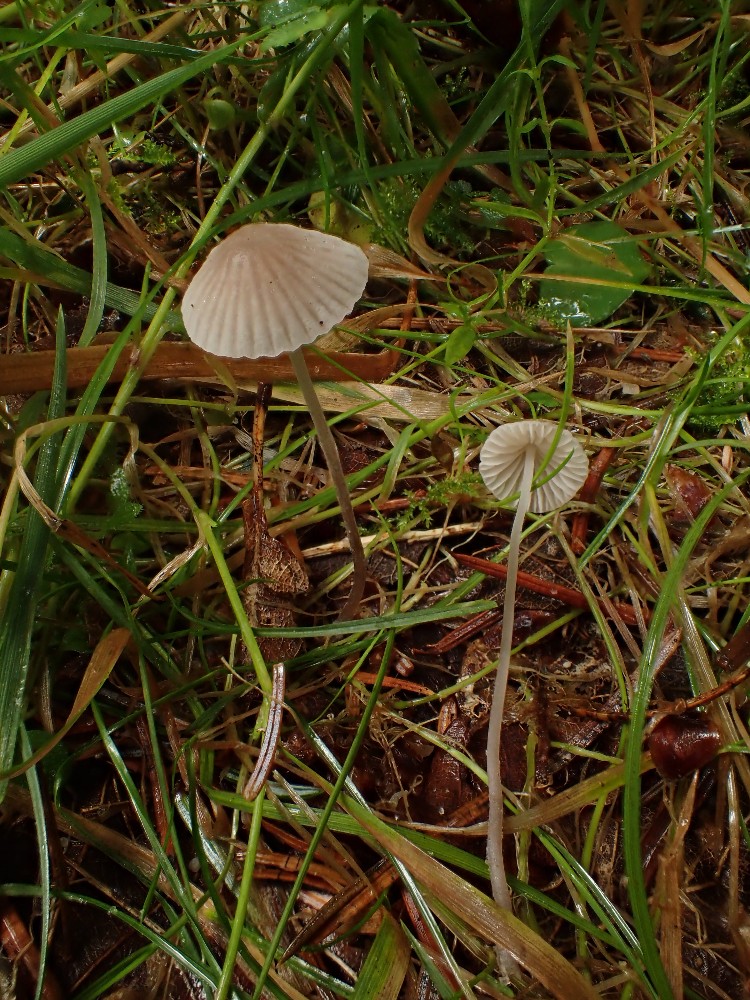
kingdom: Fungi
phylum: Basidiomycota
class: Agaricomycetes
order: Agaricales
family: Mycenaceae
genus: Mycena
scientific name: Mycena
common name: huesvamp
